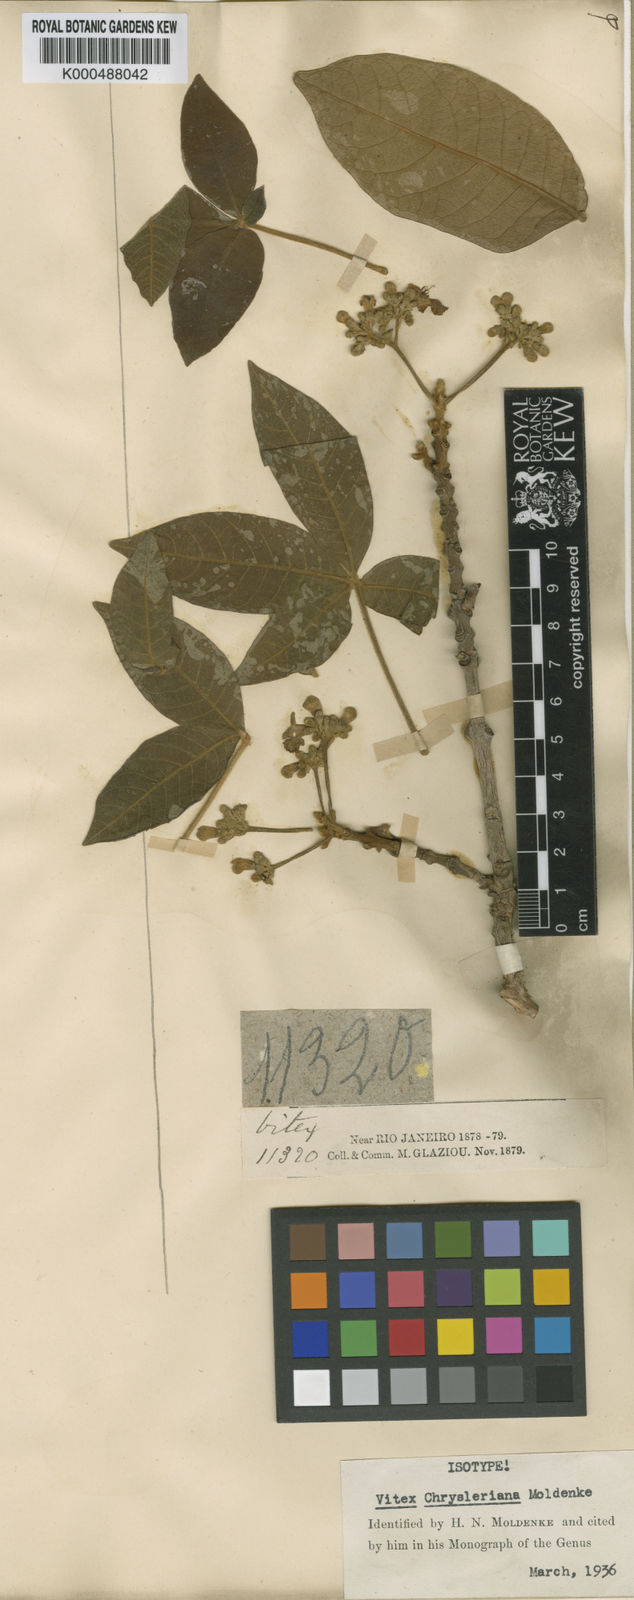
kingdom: Plantae
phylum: Tracheophyta
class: Magnoliopsida
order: Lamiales
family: Lamiaceae
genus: Vitex
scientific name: Vitex chrysleriana
